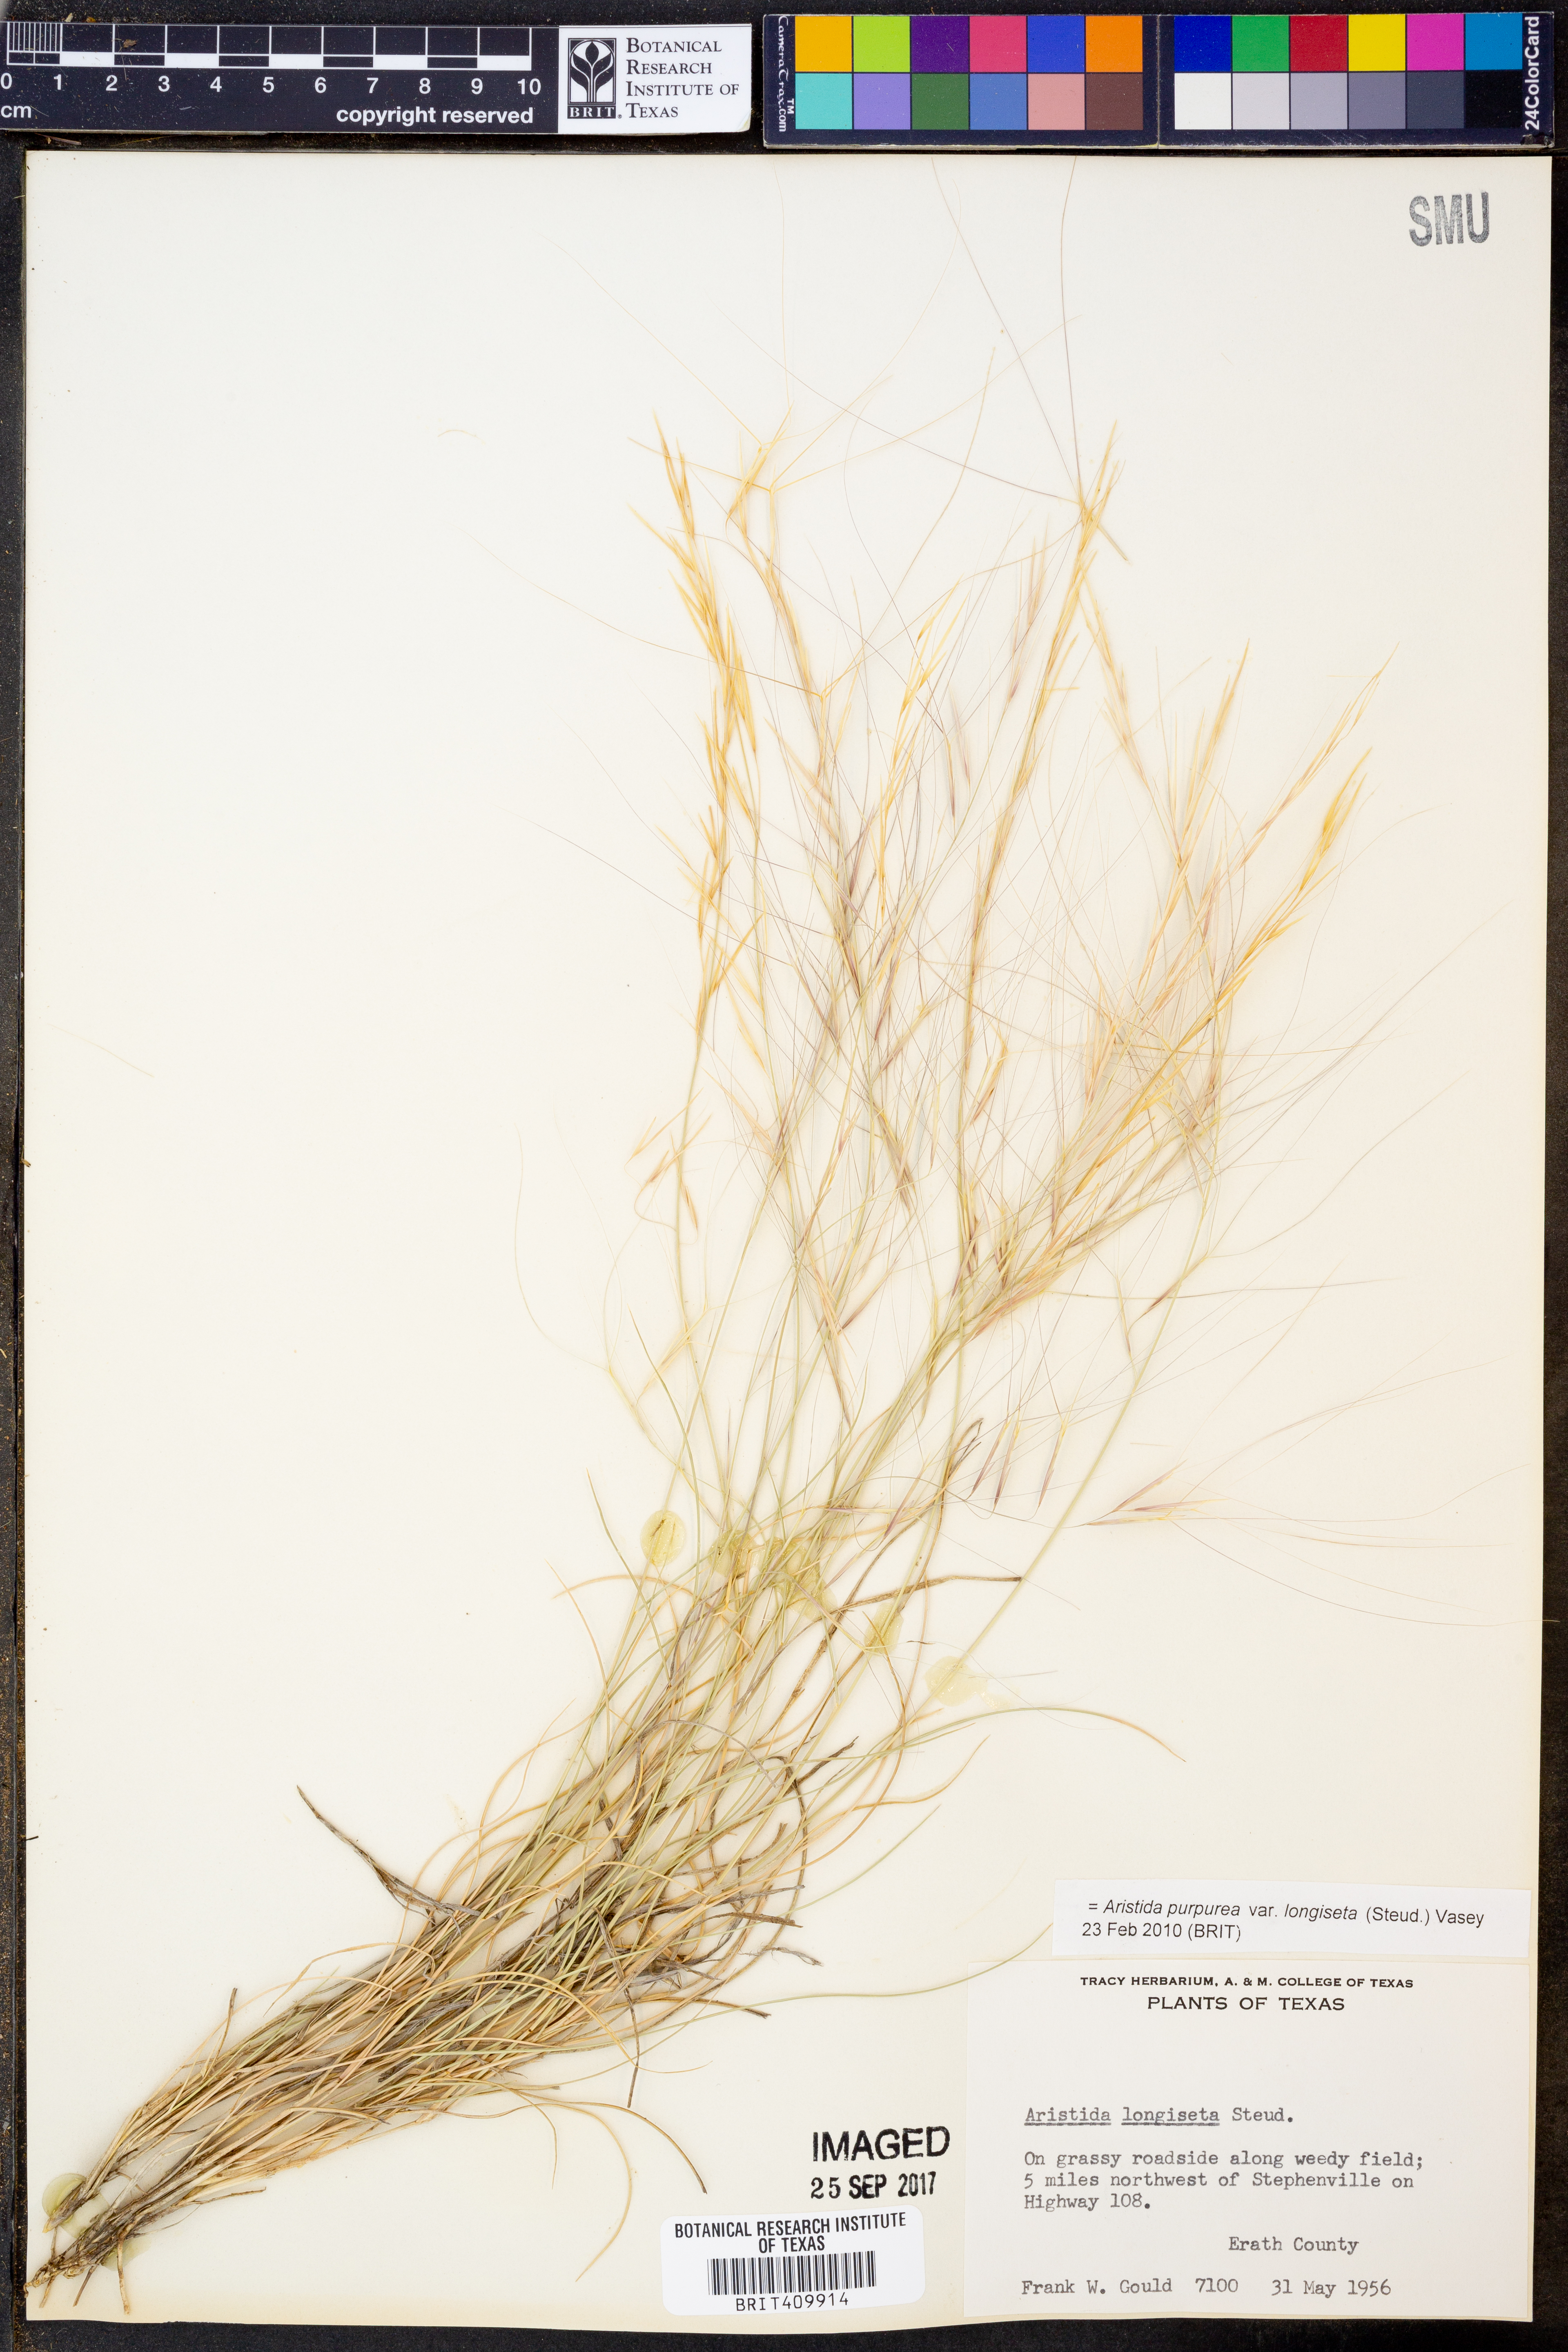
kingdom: Plantae
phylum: Tracheophyta
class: Liliopsida
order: Poales
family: Poaceae
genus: Aristida
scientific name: Aristida longiseta
